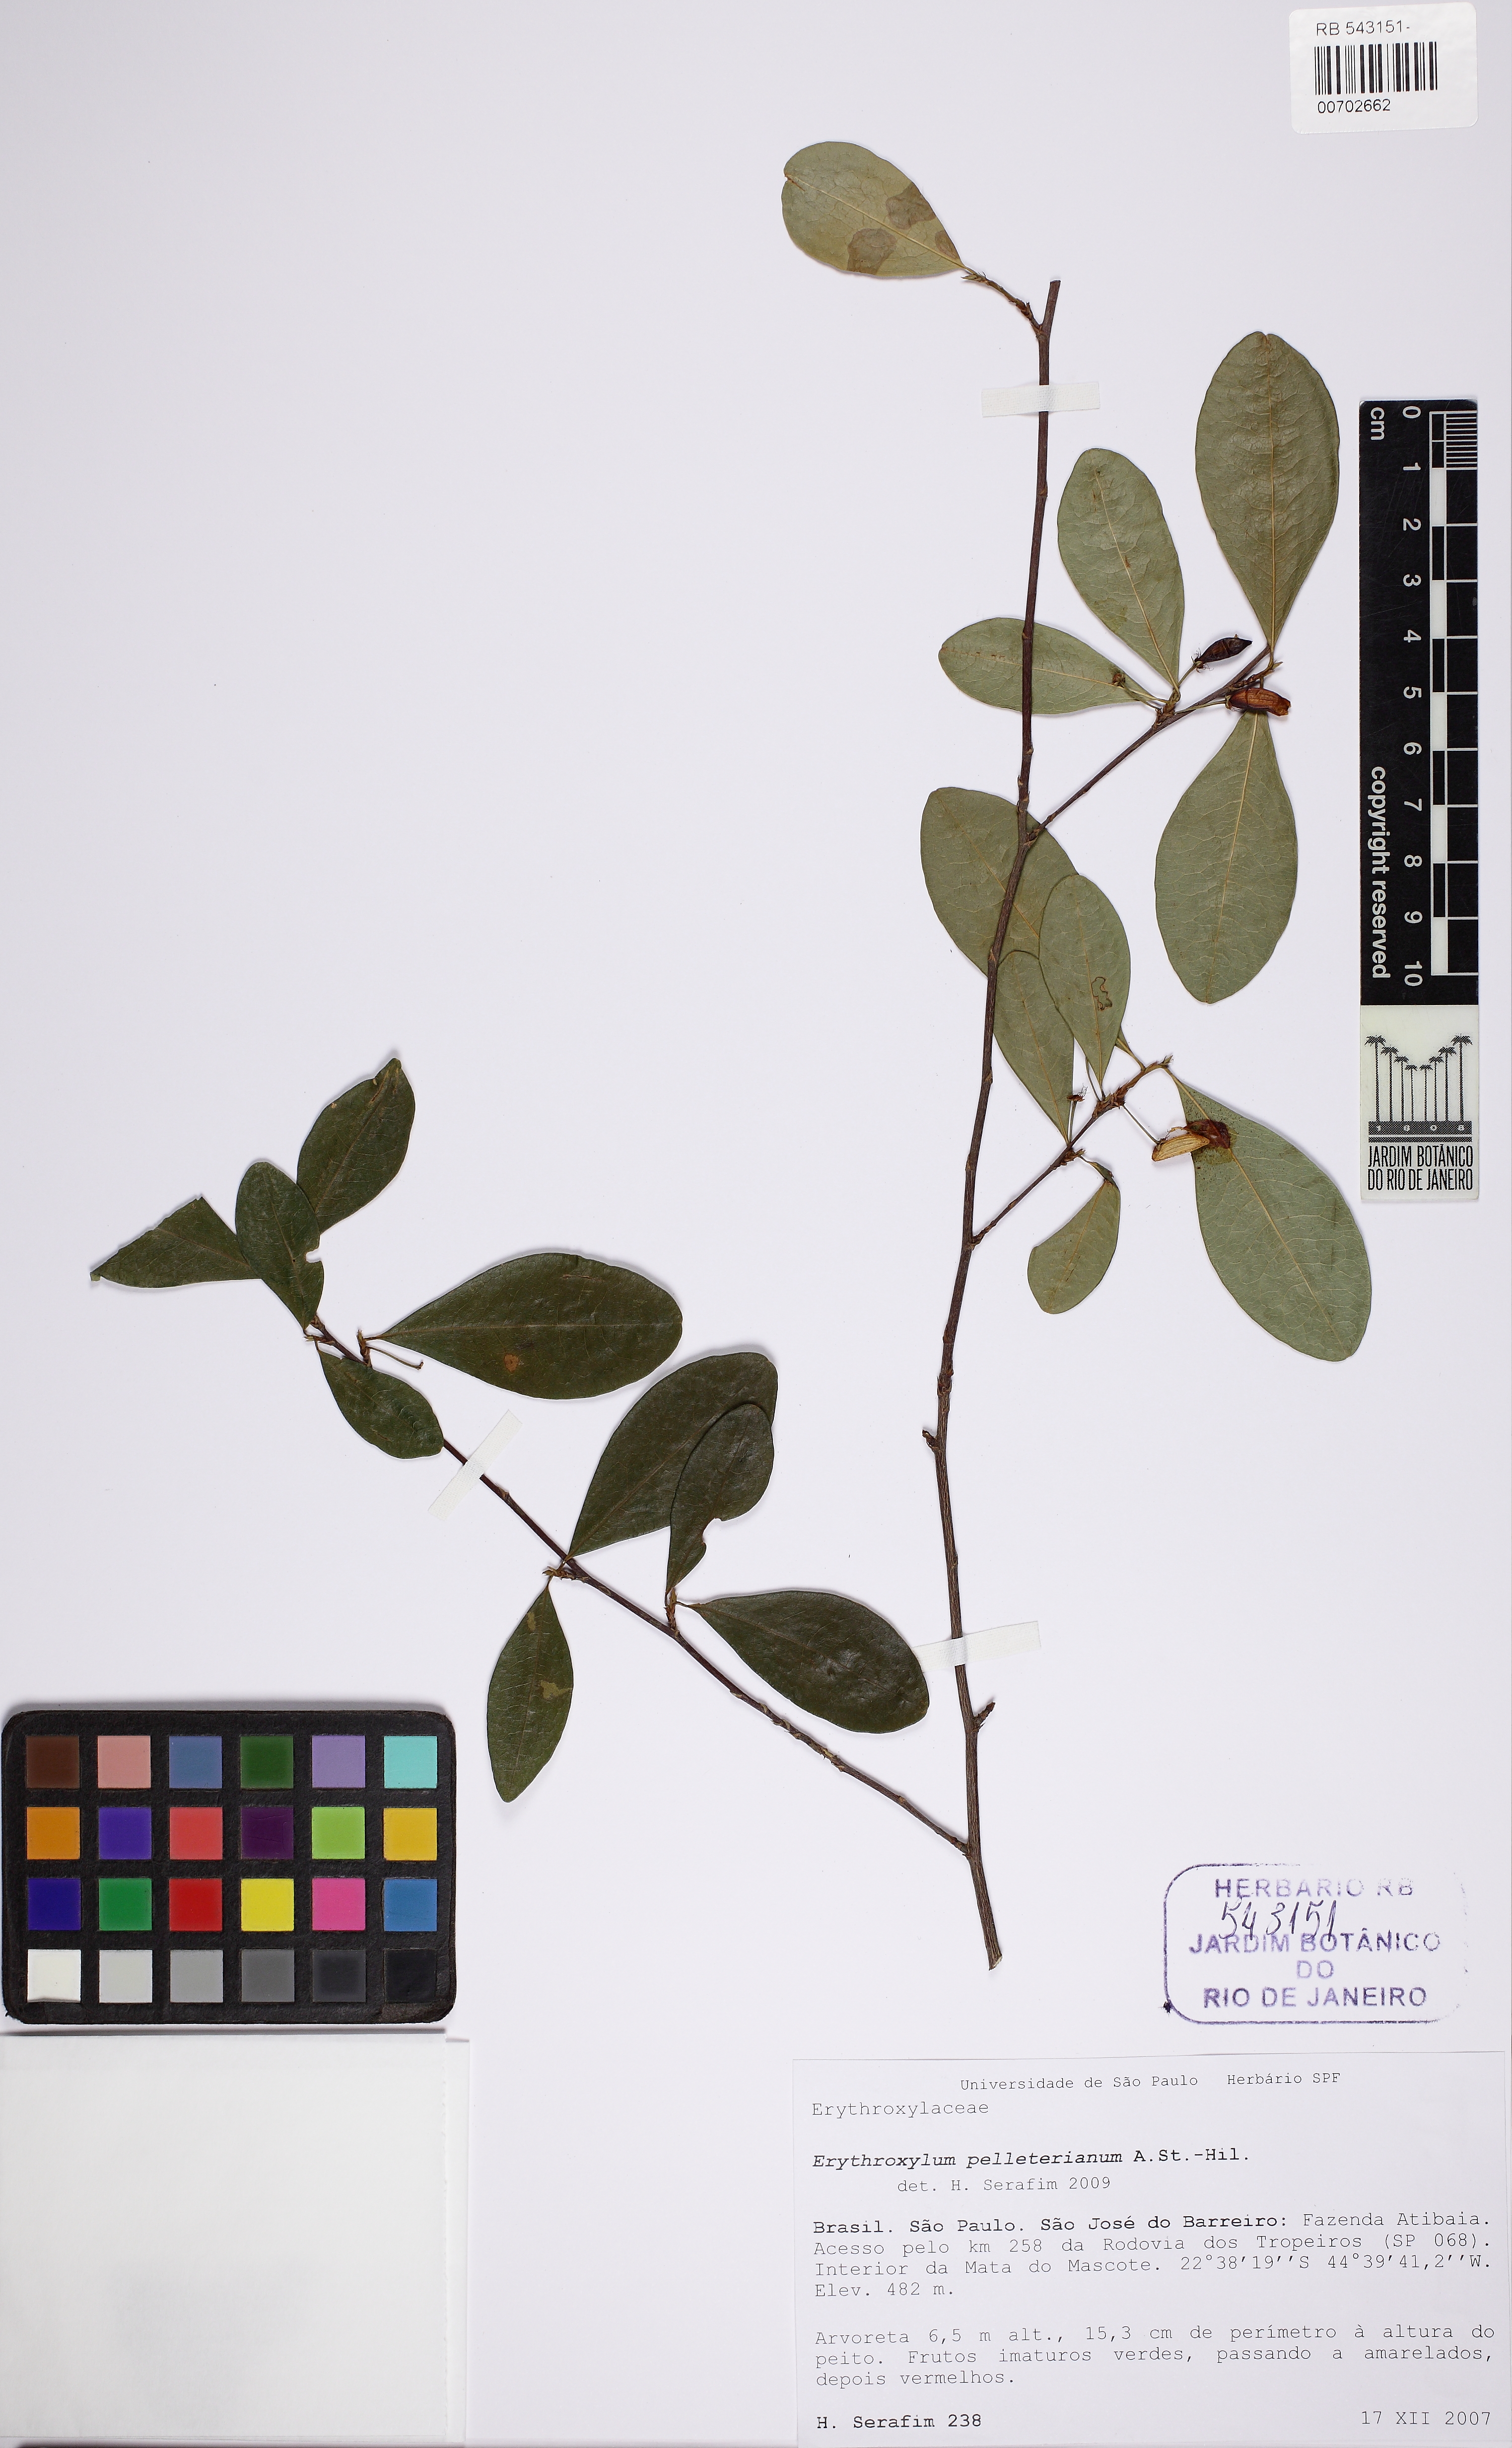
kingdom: Plantae
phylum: Tracheophyta
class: Magnoliopsida
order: Malpighiales
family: Erythroxylaceae
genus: Erythroxylum
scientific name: Erythroxylum pelleterianum
